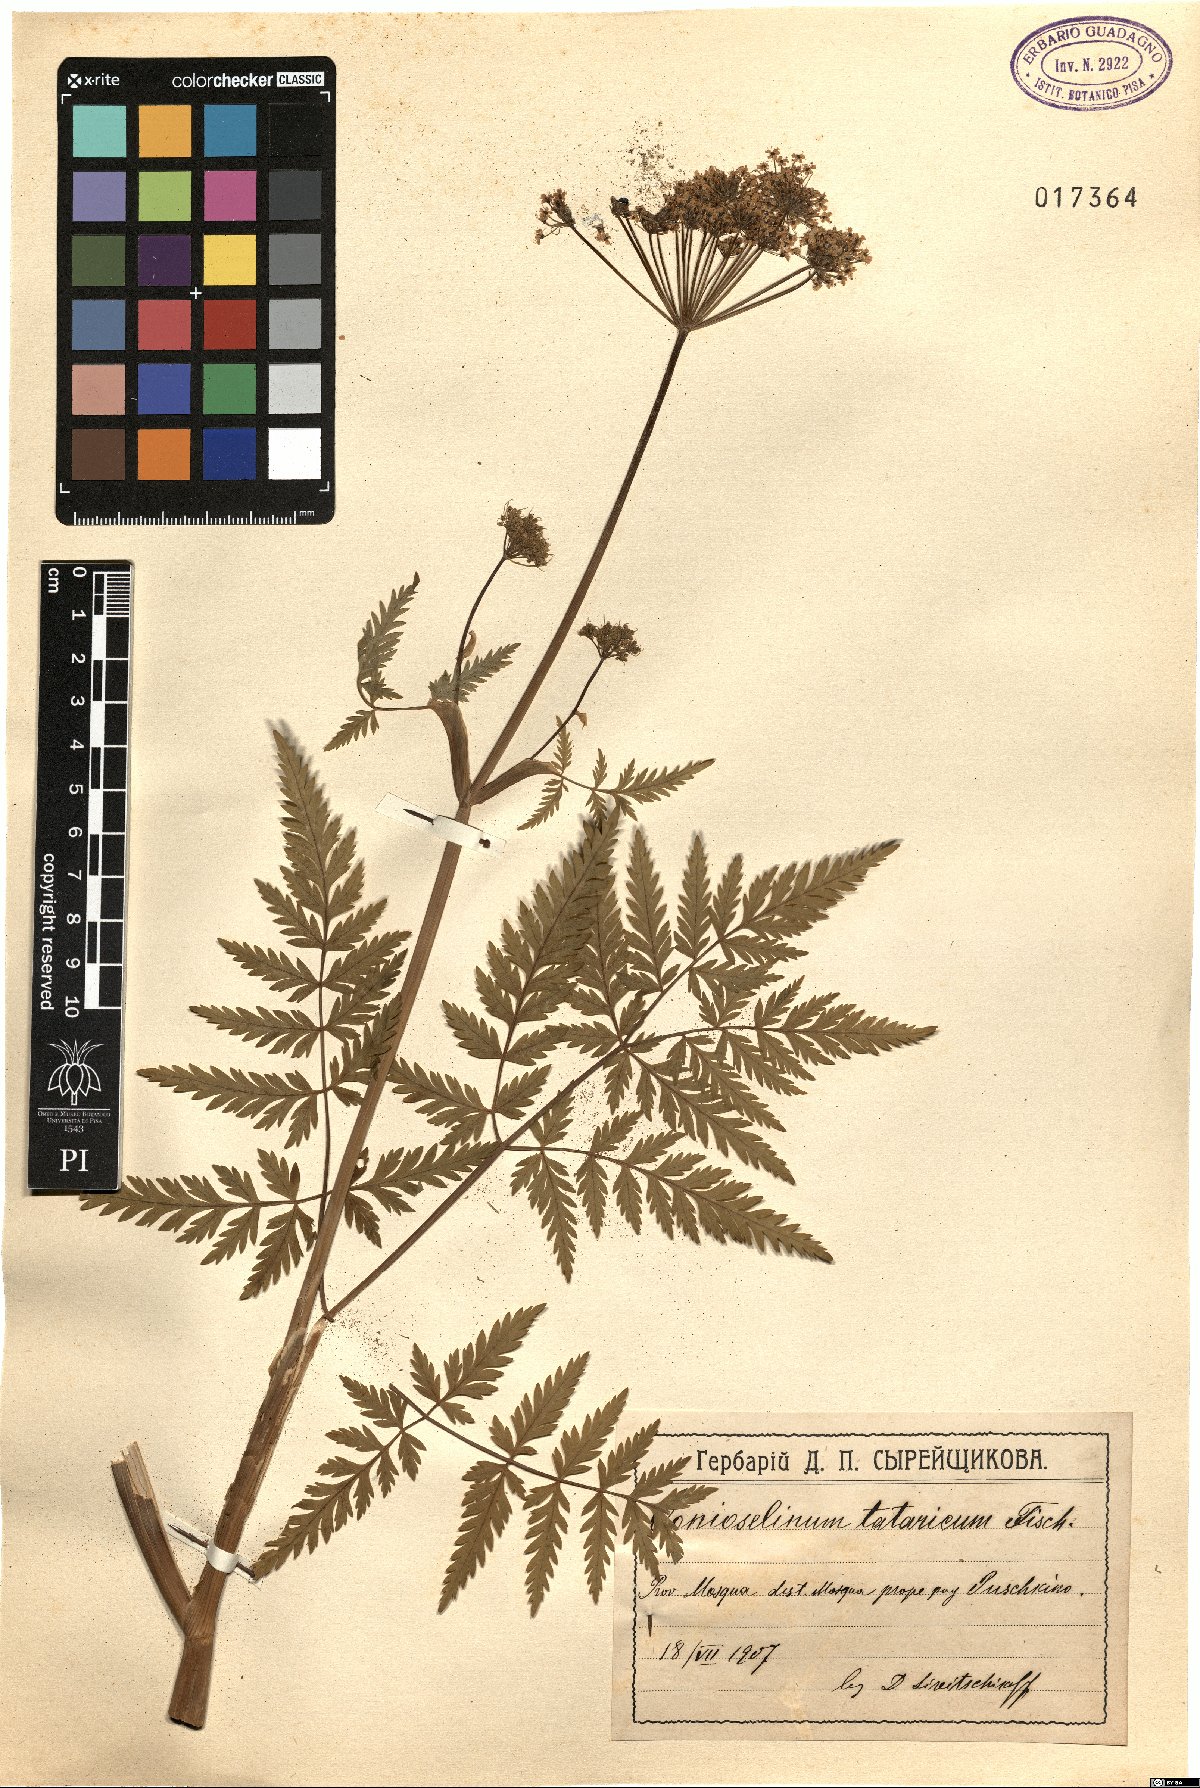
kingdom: Plantae
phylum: Tracheophyta
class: Magnoliopsida
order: Apiales
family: Apiaceae
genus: Conioselinum
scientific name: Conioselinum tataricum
